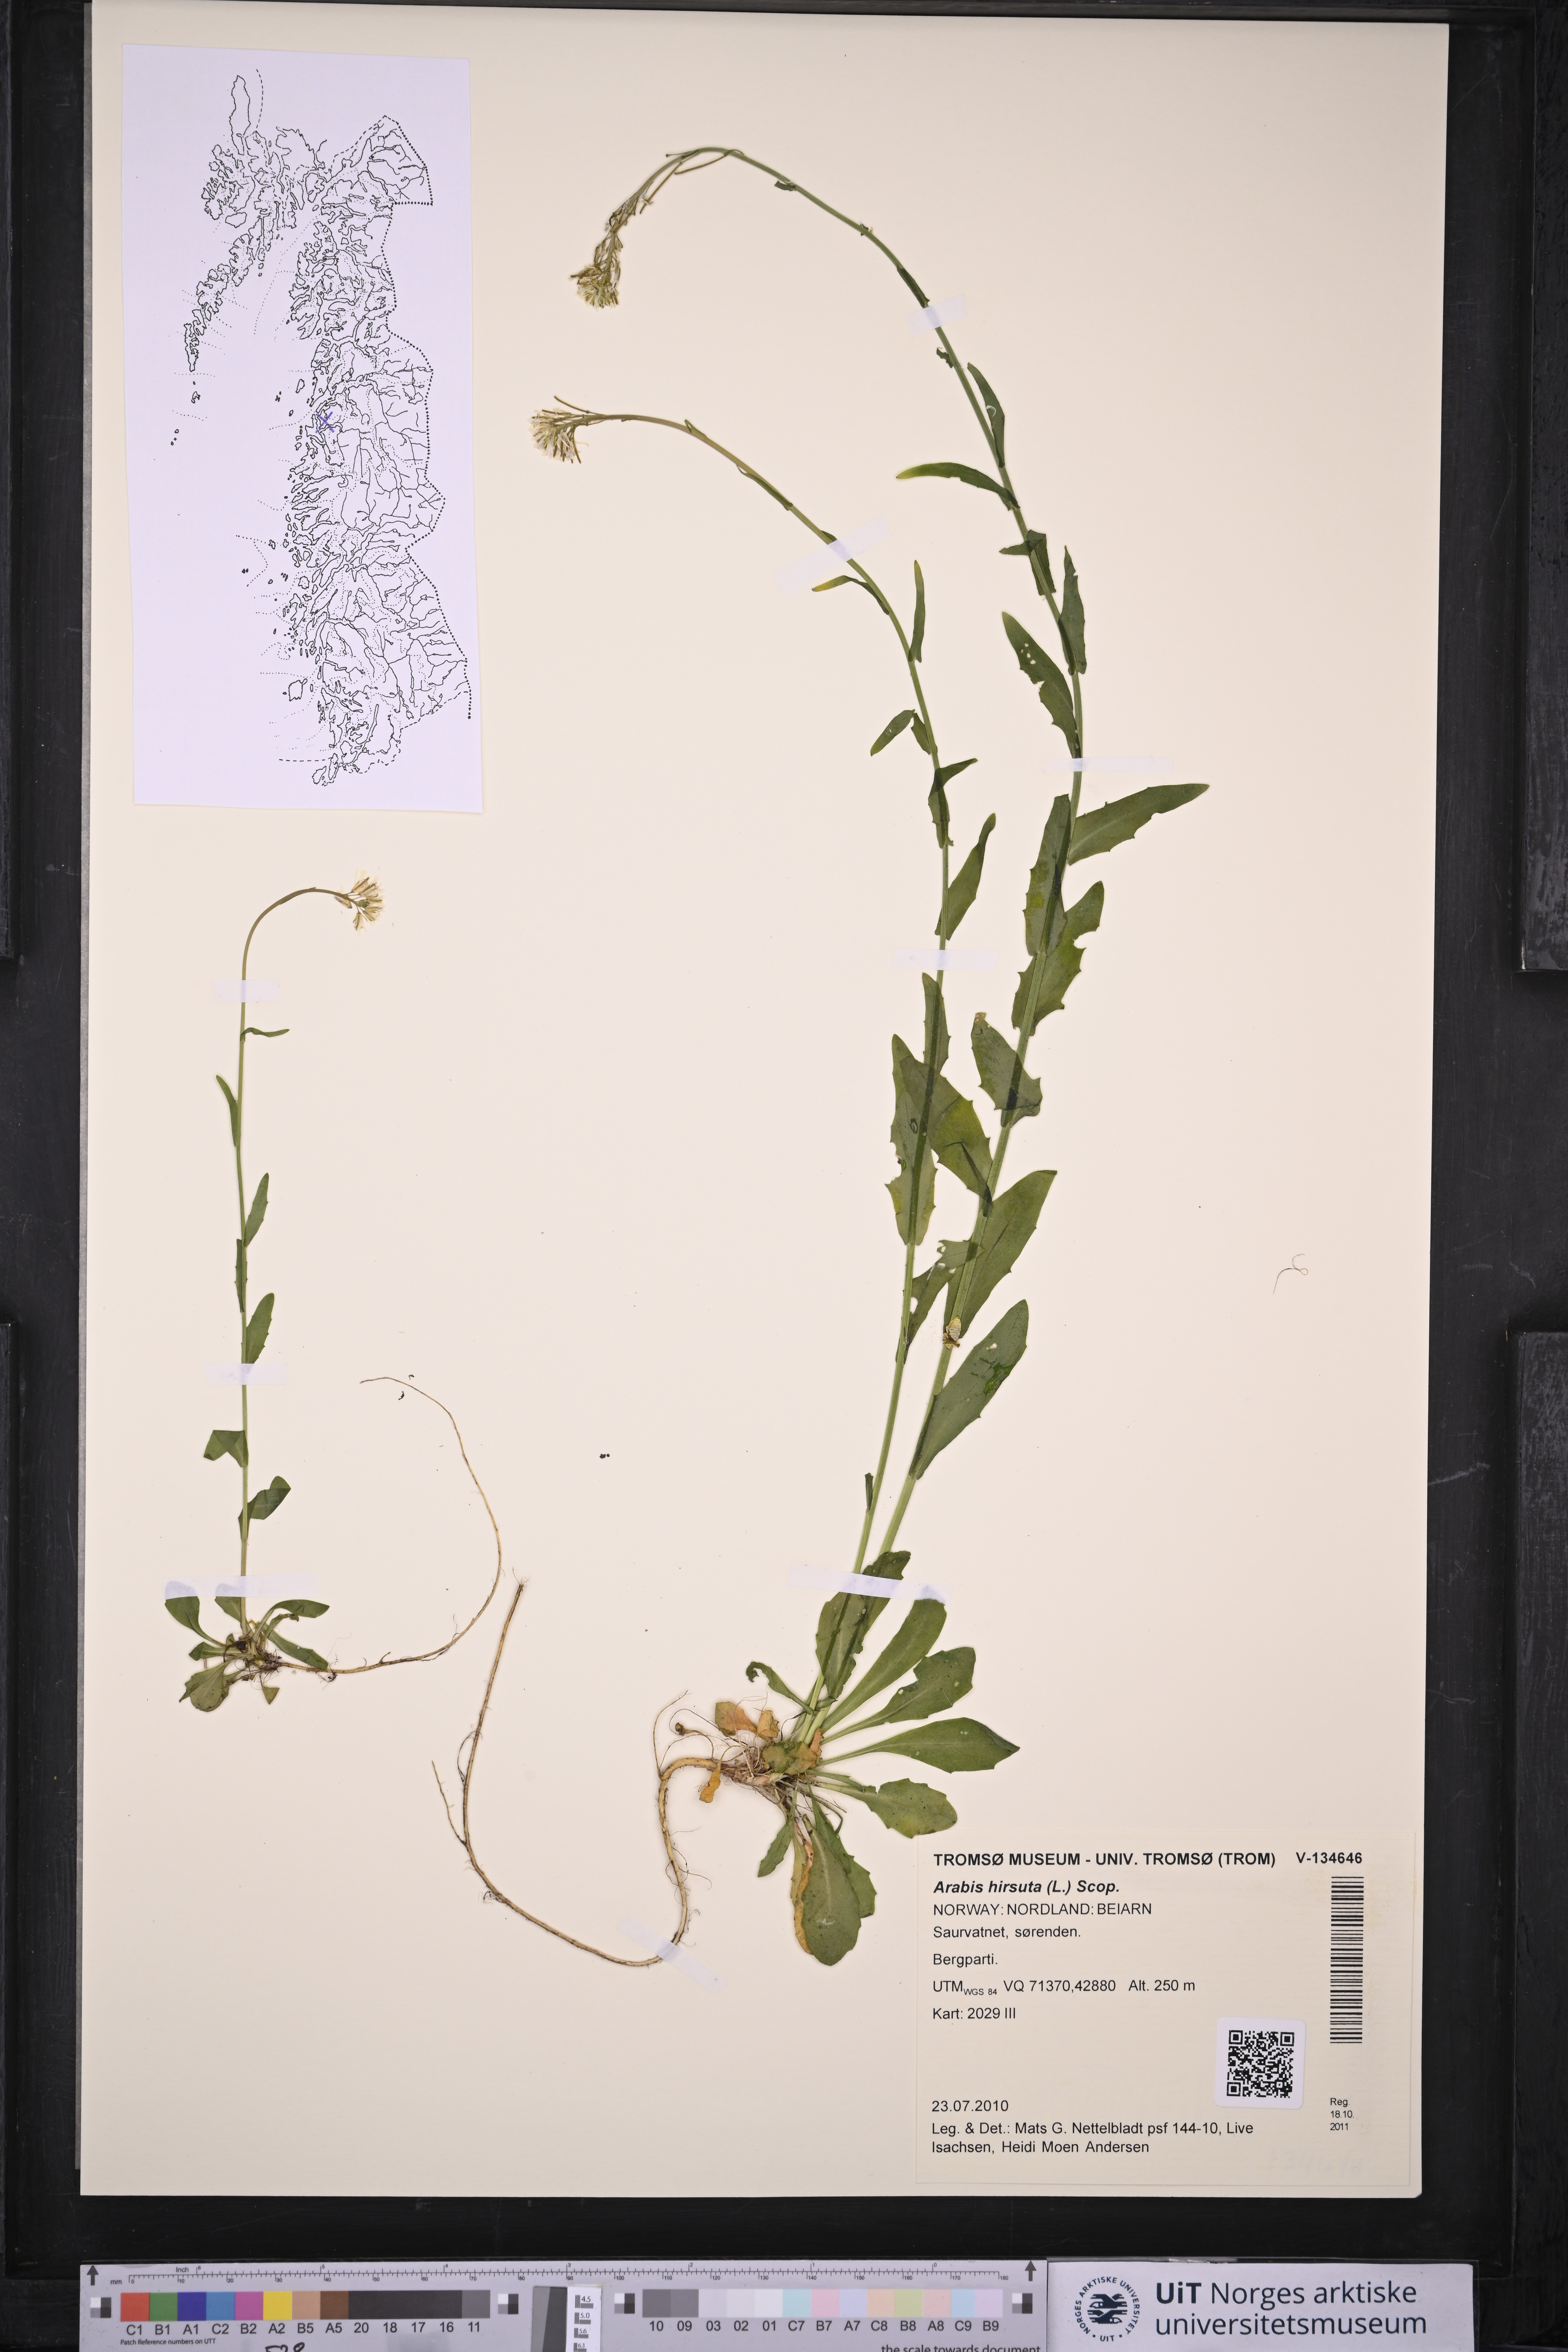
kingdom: Plantae
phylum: Tracheophyta
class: Magnoliopsida
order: Brassicales
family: Brassicaceae
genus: Arabis
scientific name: Arabis hirsuta
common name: Hairy rock-cress
